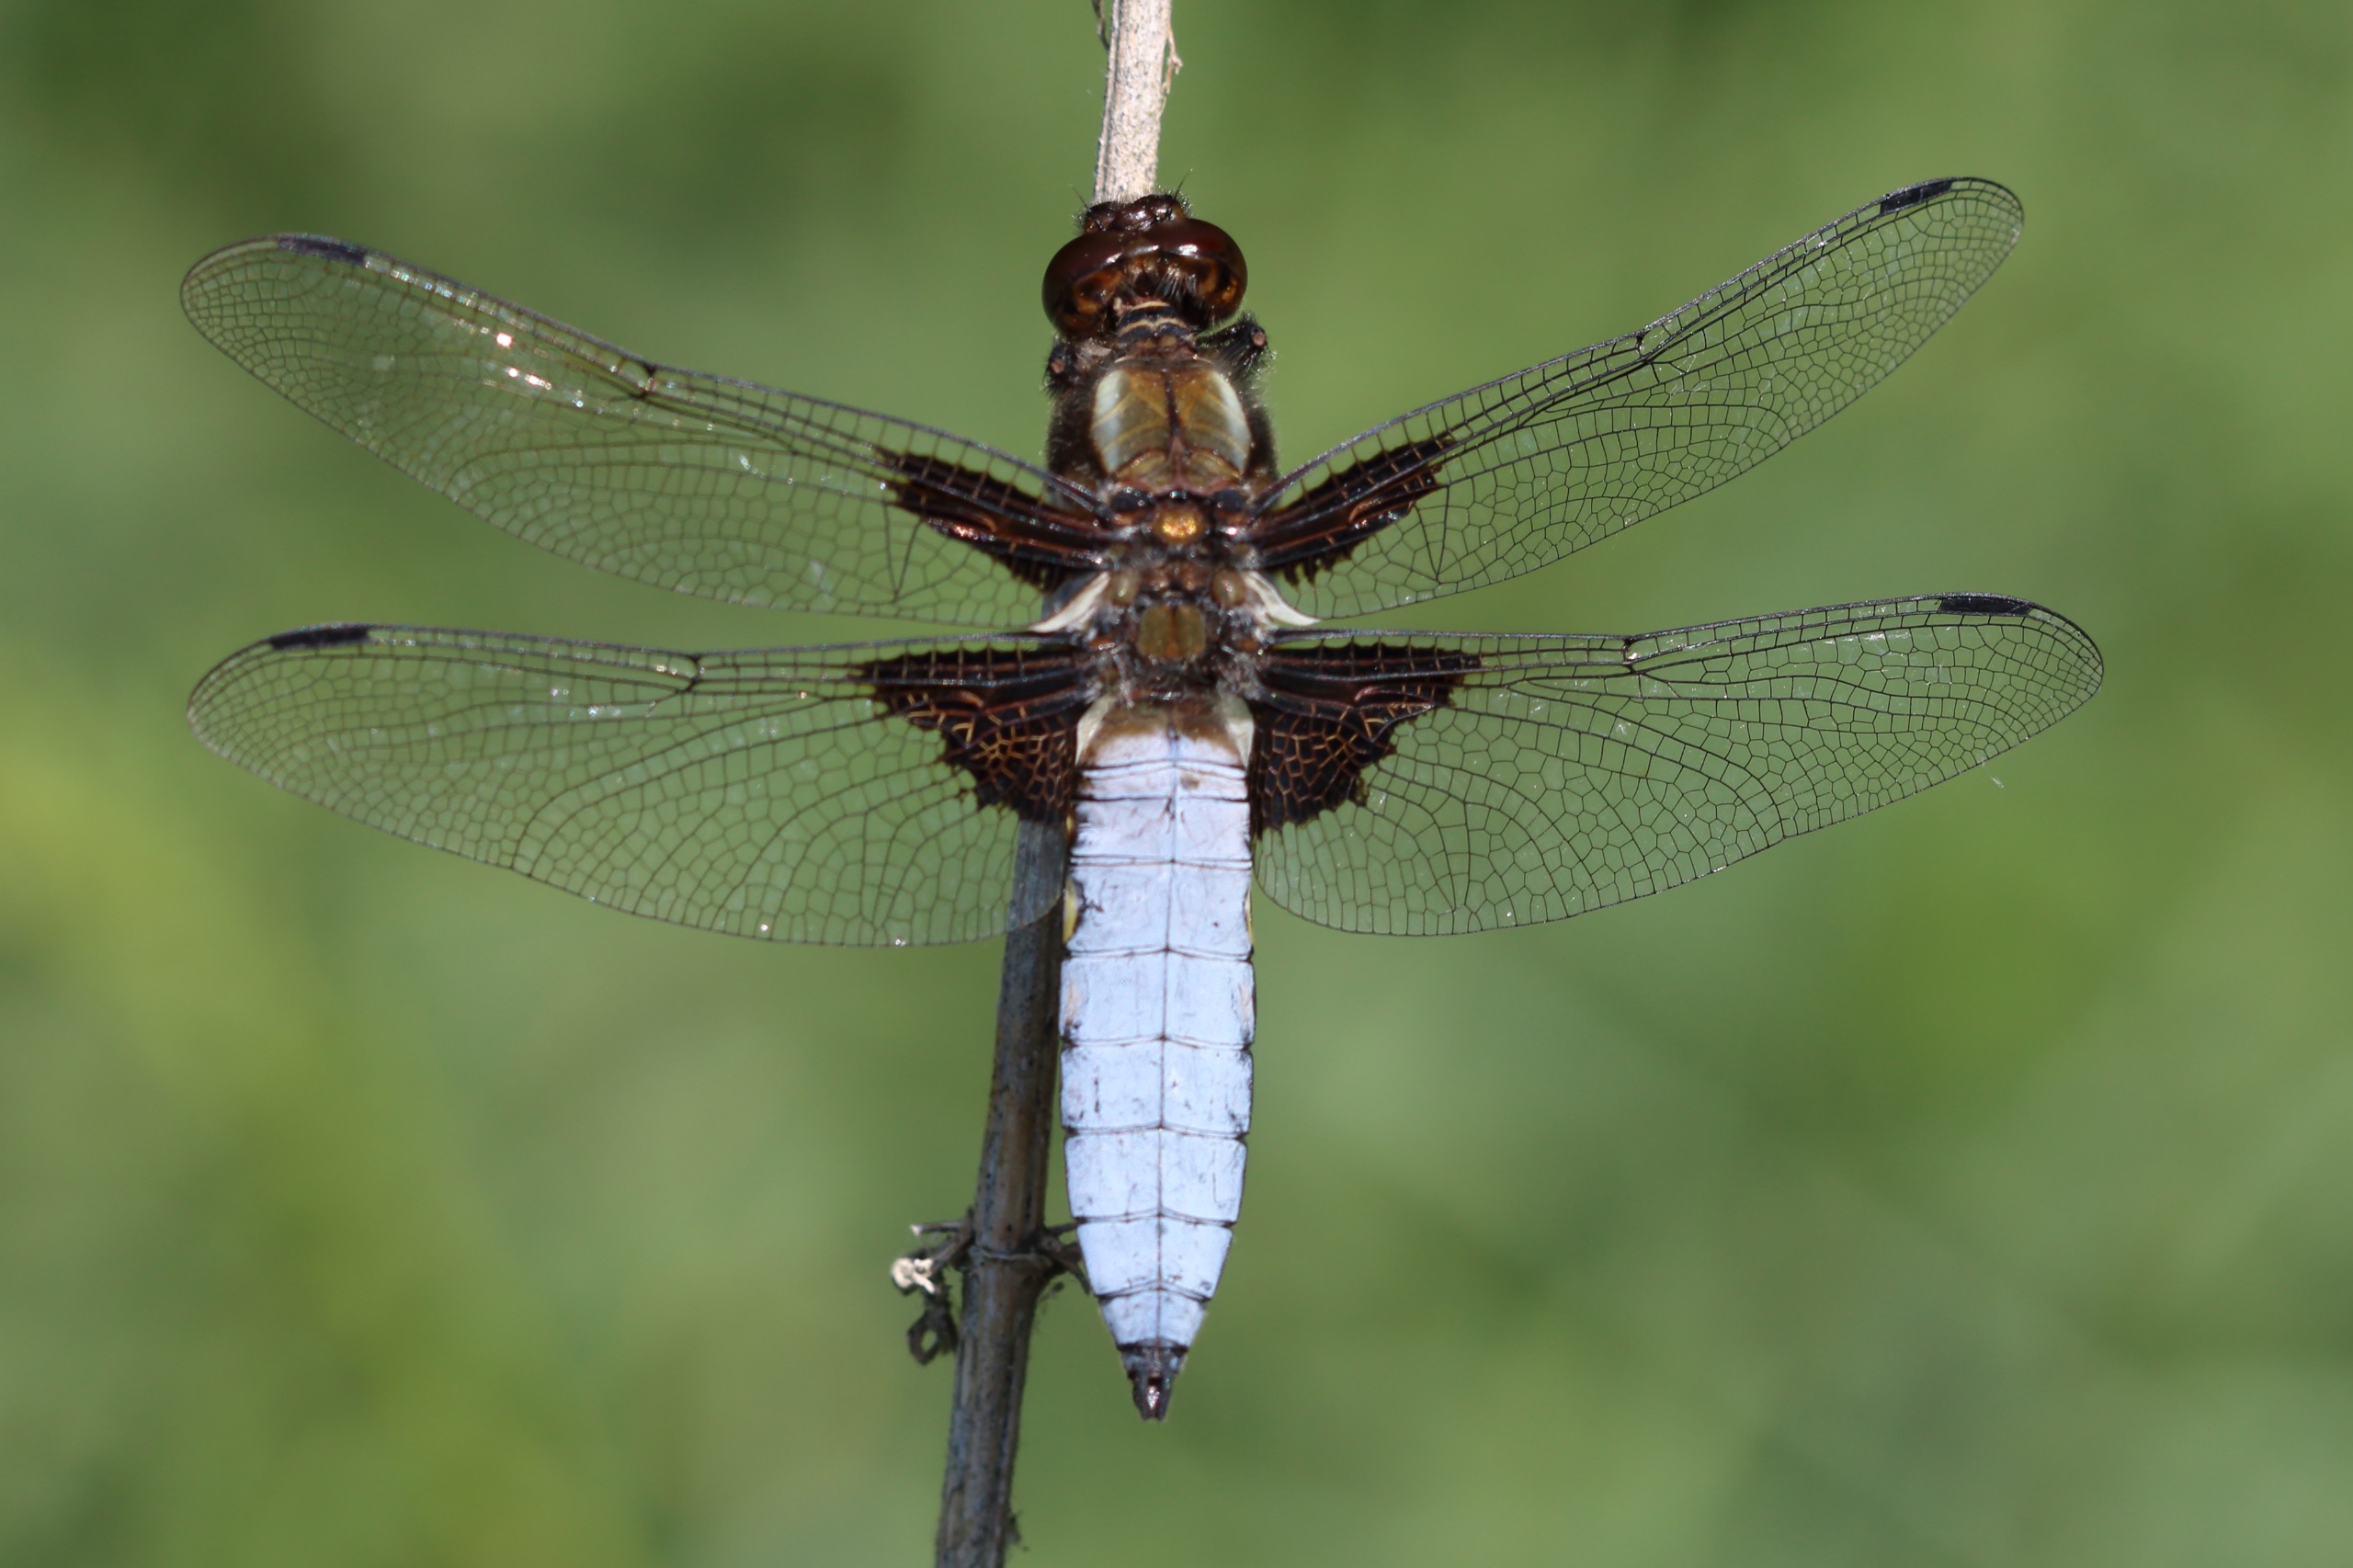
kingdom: Animalia
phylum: Arthropoda
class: Insecta
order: Odonata
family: Libellulidae
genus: Libellula
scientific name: Libellula depressa
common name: Blå libel
